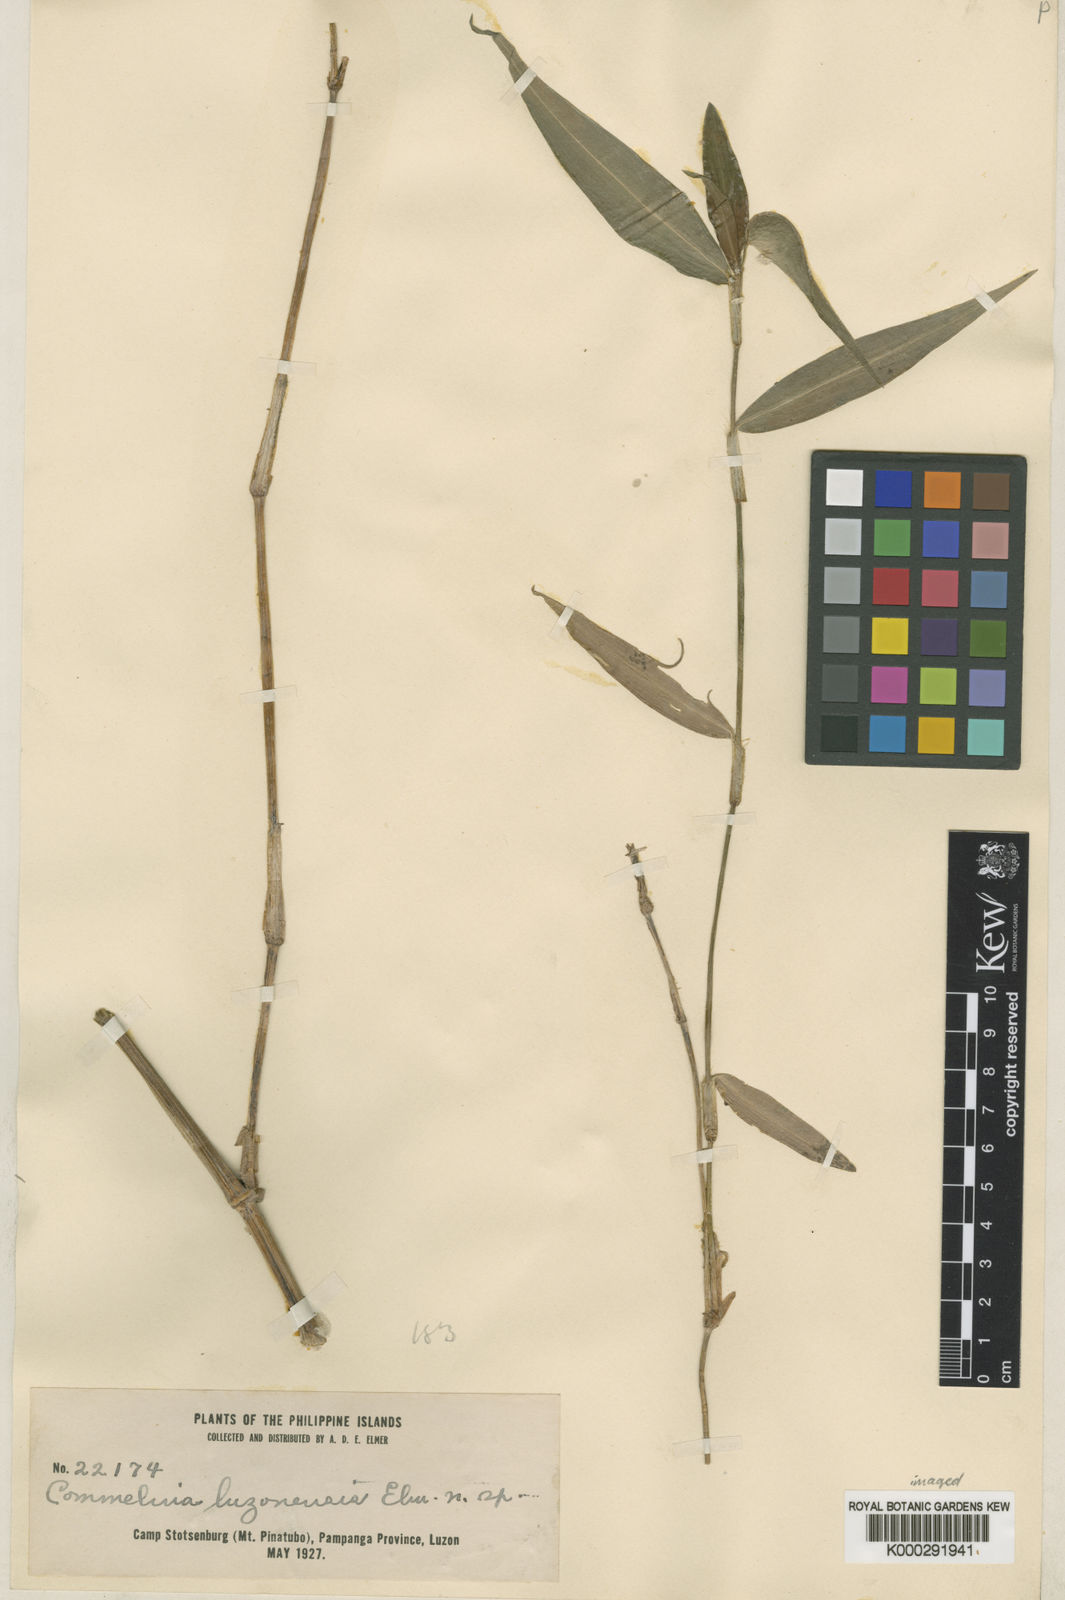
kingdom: Plantae
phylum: Tracheophyta
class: Liliopsida
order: Commelinales
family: Commelinaceae
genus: Commelina
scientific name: Commelina luzonensis
